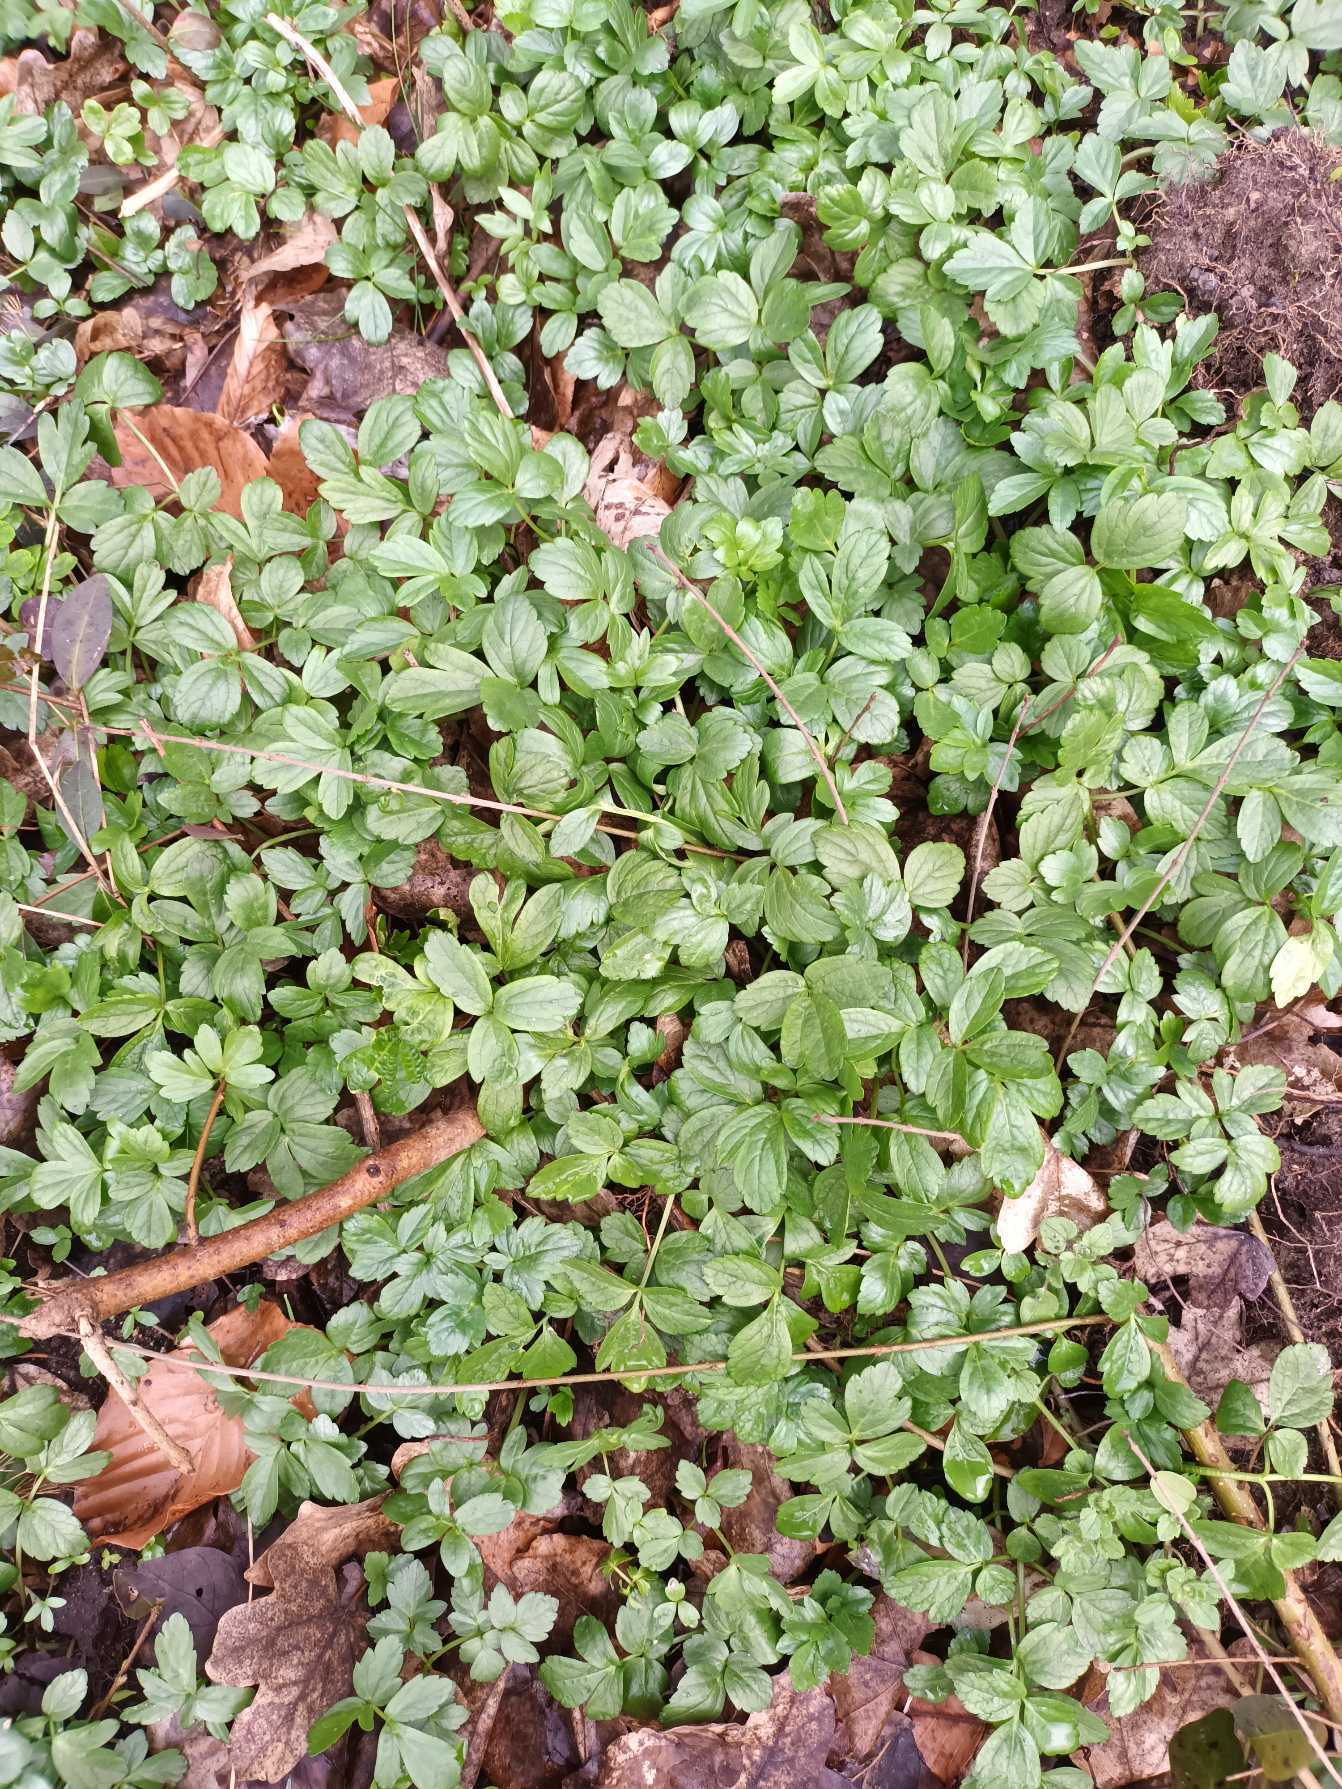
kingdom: Plantae
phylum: Tracheophyta
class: Magnoliopsida
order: Apiales
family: Apiaceae
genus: Smyrnium
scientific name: Smyrnium perfoliatum
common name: Lundgylden
